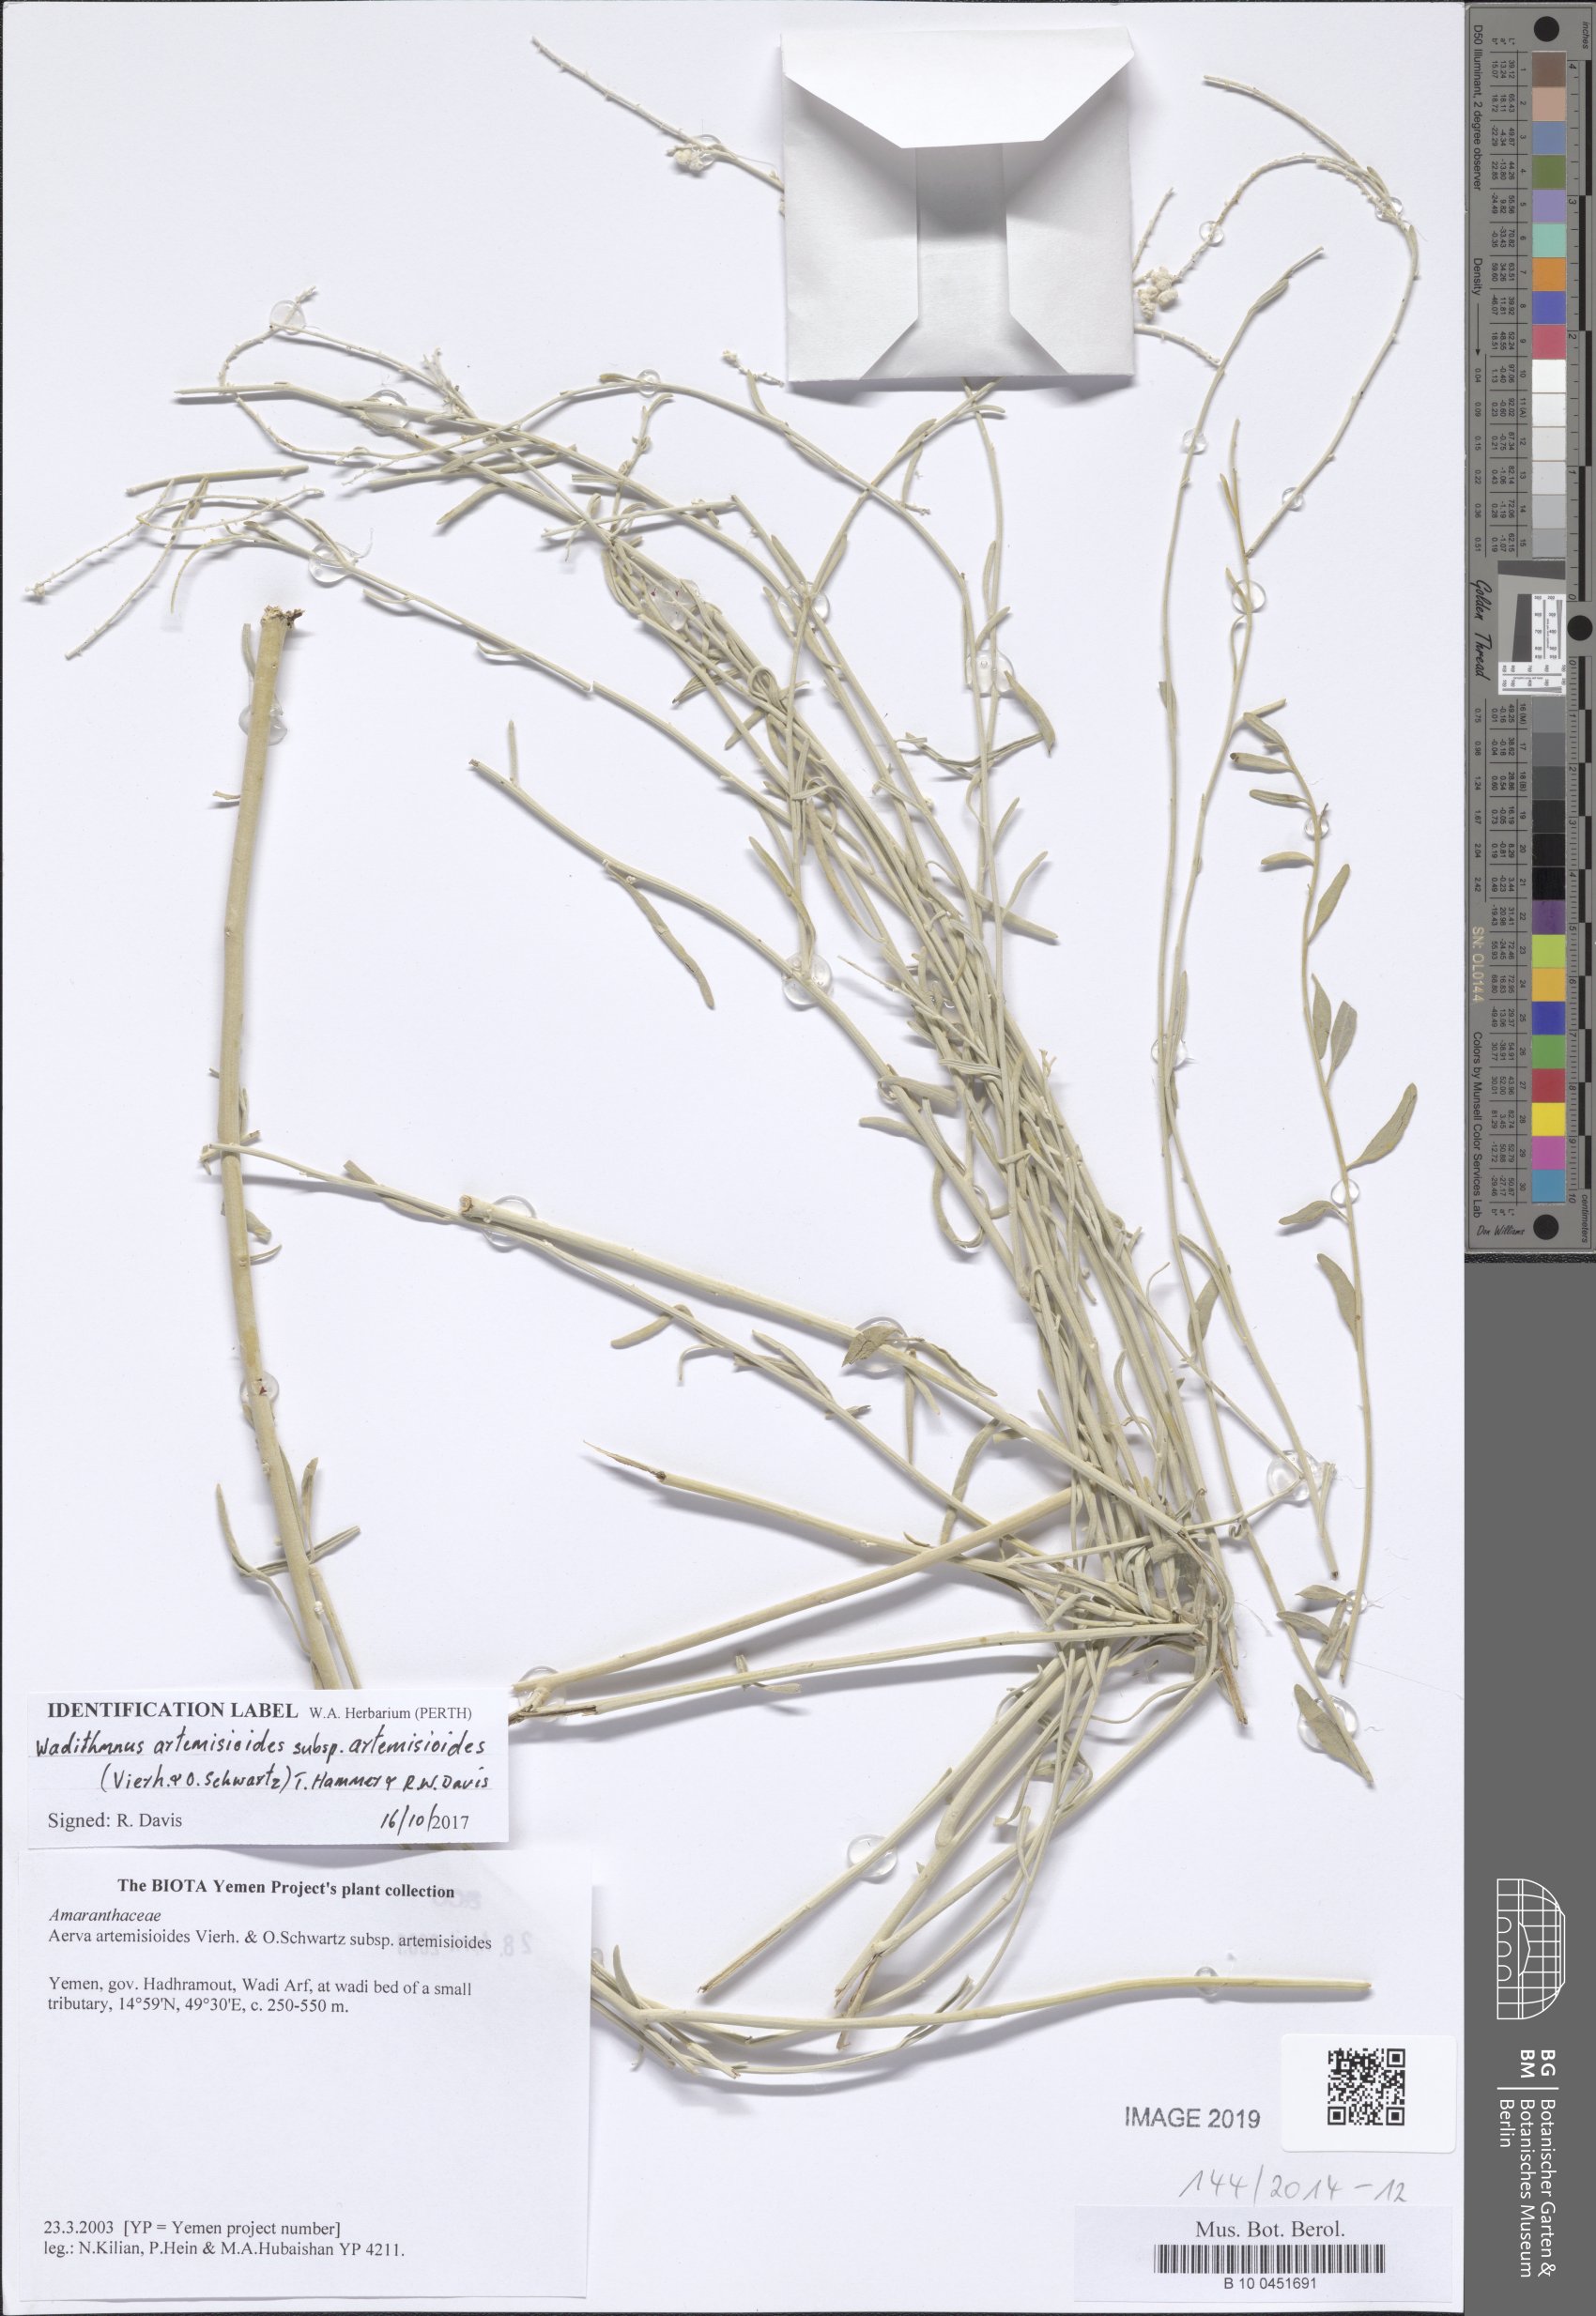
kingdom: Plantae
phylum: Tracheophyta
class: Magnoliopsida
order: Caryophyllales
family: Amaranthaceae
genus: Wadithamnus
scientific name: Wadithamnus artemisioides
